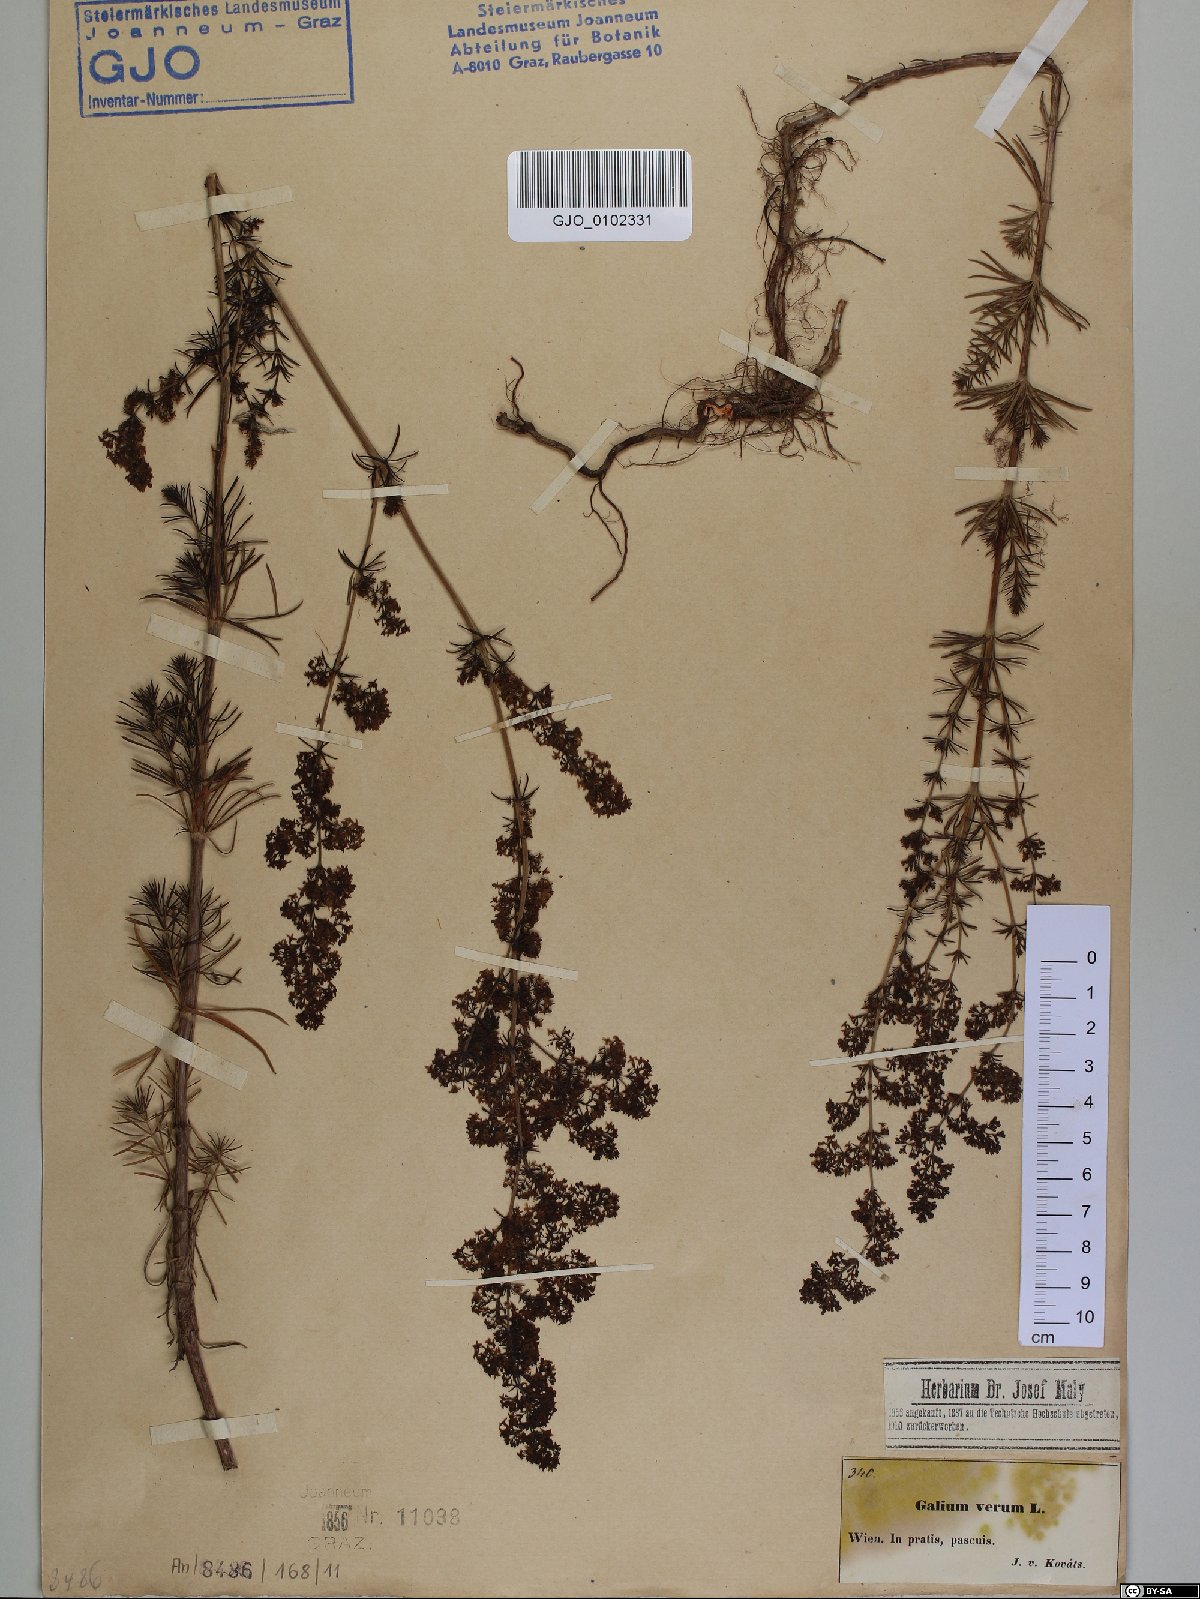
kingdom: Plantae
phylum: Tracheophyta
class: Magnoliopsida
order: Gentianales
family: Rubiaceae
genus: Galium
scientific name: Galium verum
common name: Lady's bedstraw
